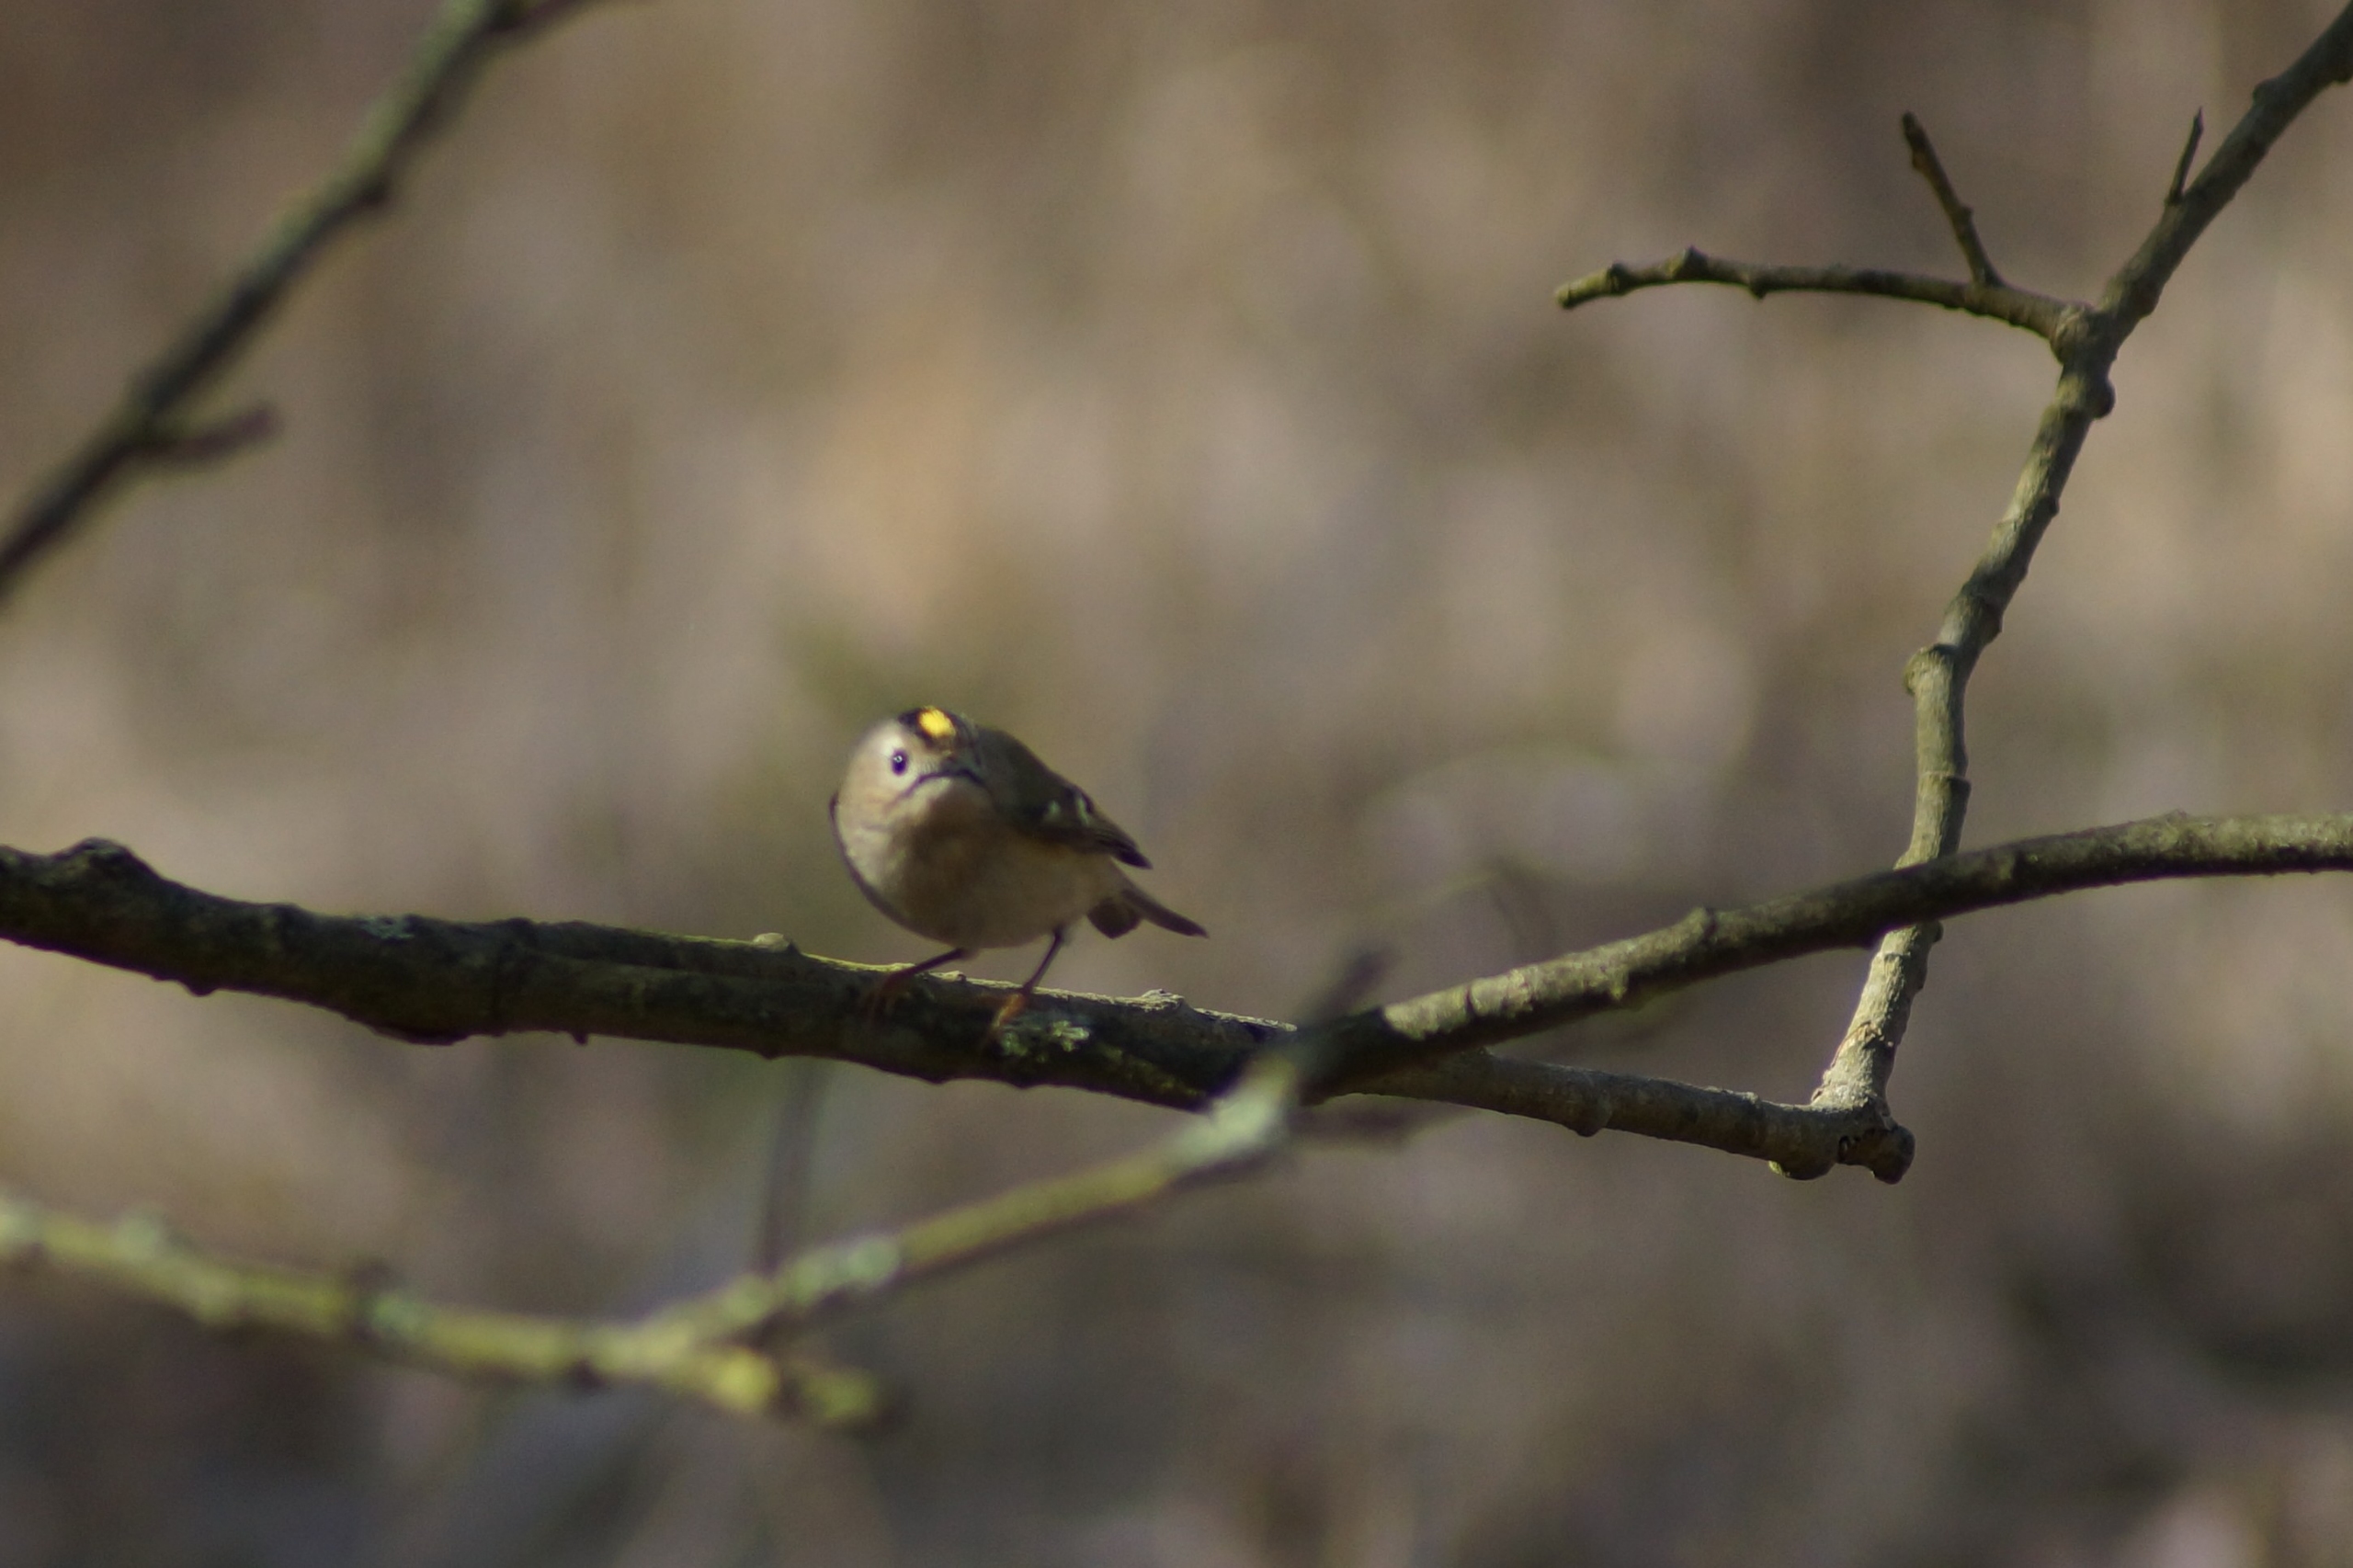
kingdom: Animalia
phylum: Chordata
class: Aves
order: Passeriformes
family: Regulidae
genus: Regulus
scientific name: Regulus regulus
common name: Fuglekonge
